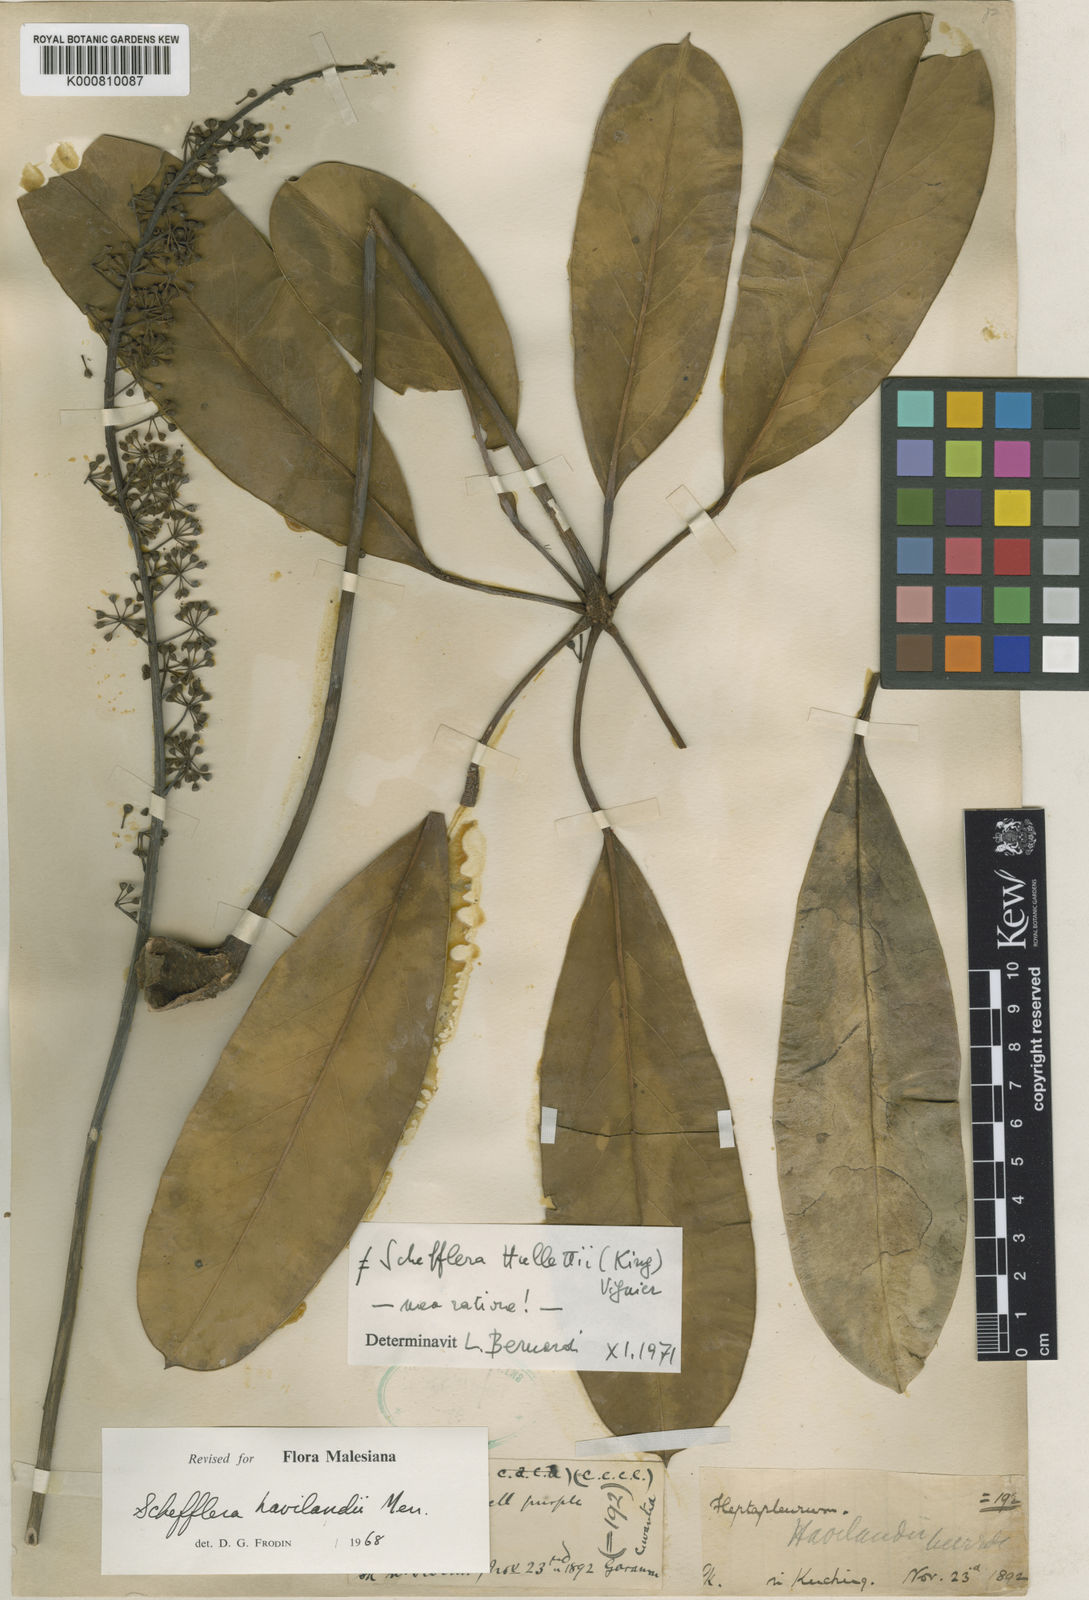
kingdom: Plantae
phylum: Tracheophyta
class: Magnoliopsida
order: Apiales
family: Araliaceae
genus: Heptapleurum
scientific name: Heptapleurum havilandii
